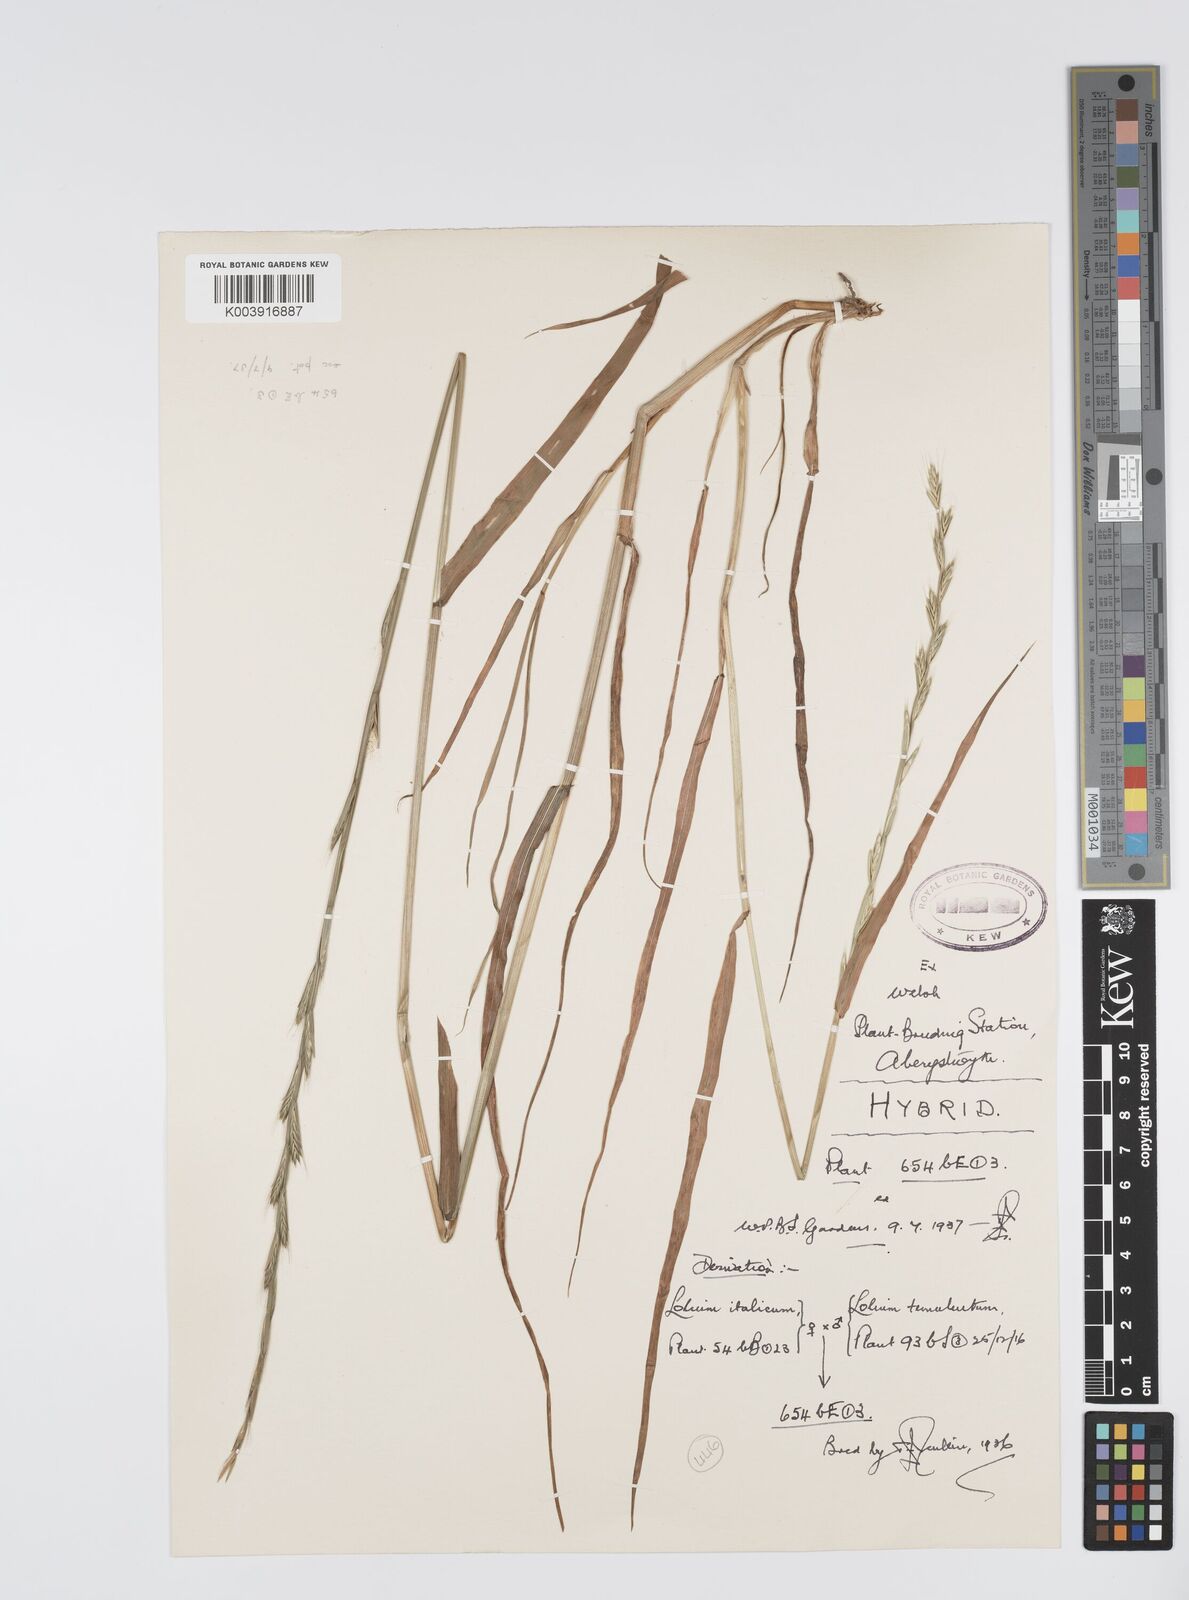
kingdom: Plantae
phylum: Tracheophyta
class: Liliopsida
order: Poales
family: Poaceae
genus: Lolium
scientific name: Lolium multiflorum
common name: Annual ryegrass
